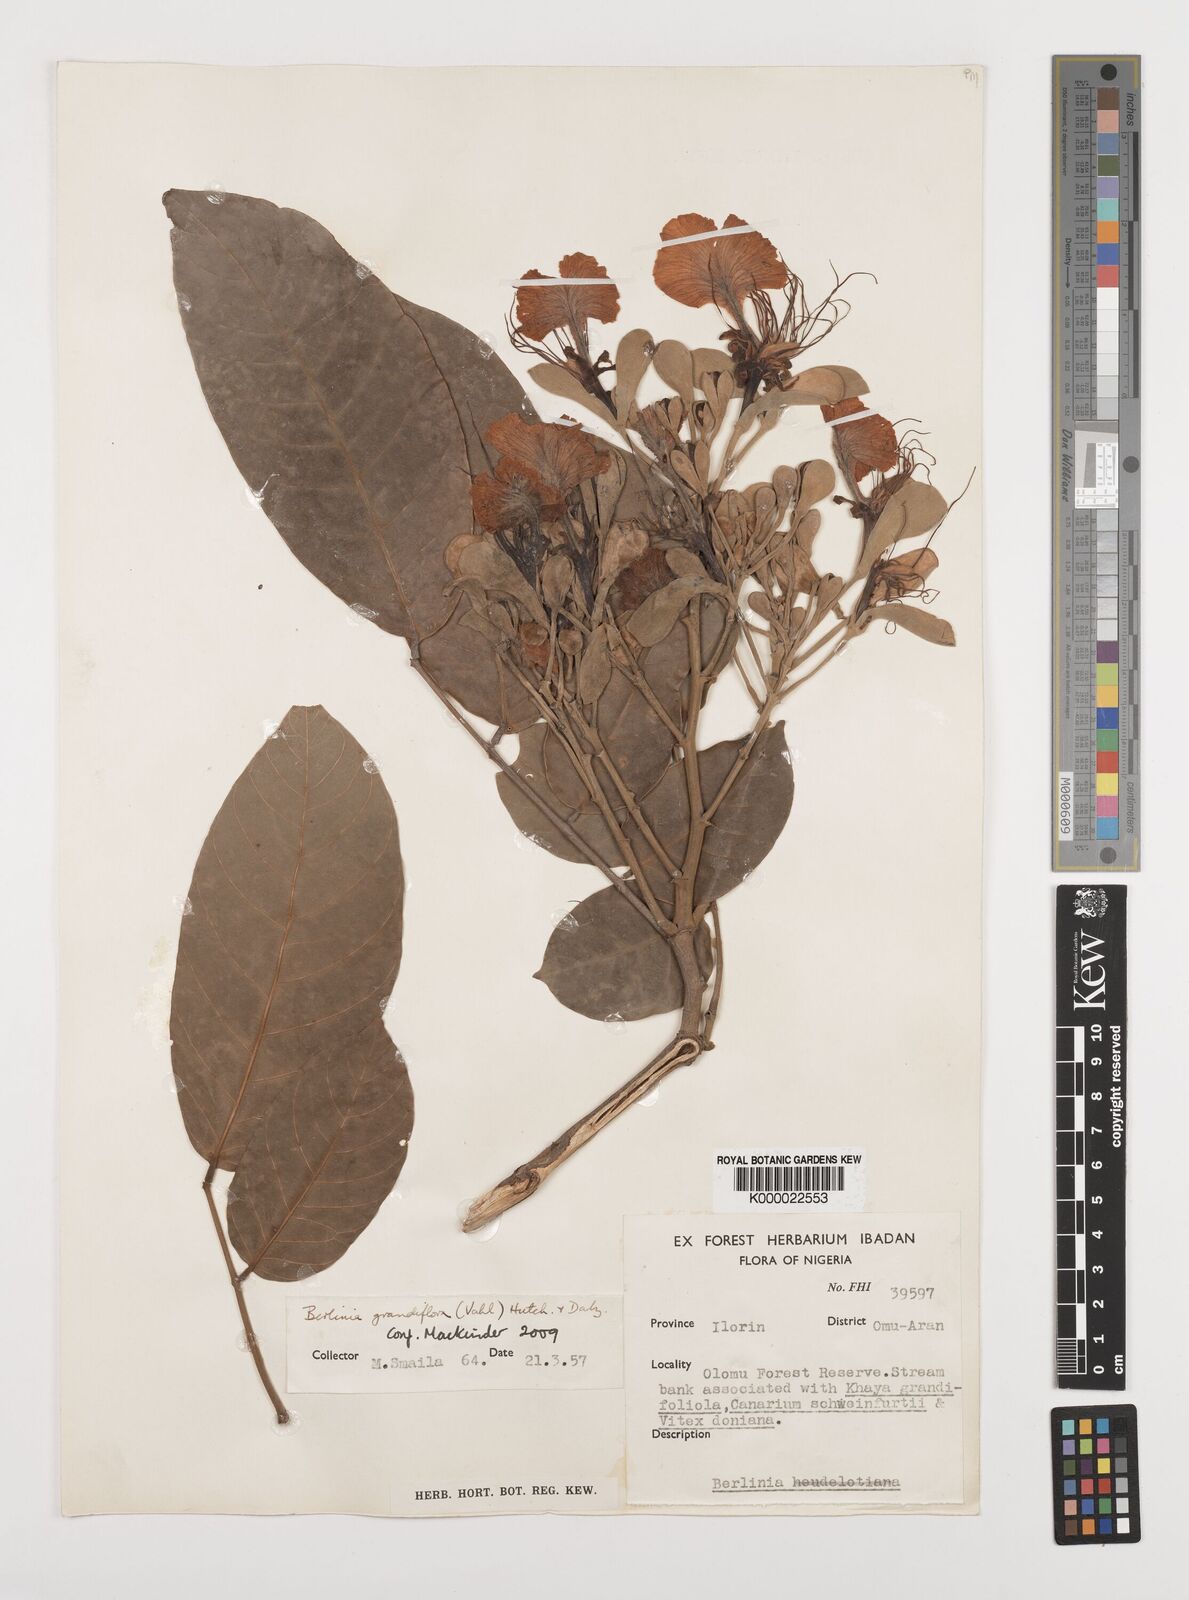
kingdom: Plantae
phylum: Tracheophyta
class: Magnoliopsida
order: Fabales
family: Fabaceae
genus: Berlinia
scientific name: Berlinia grandiflora
